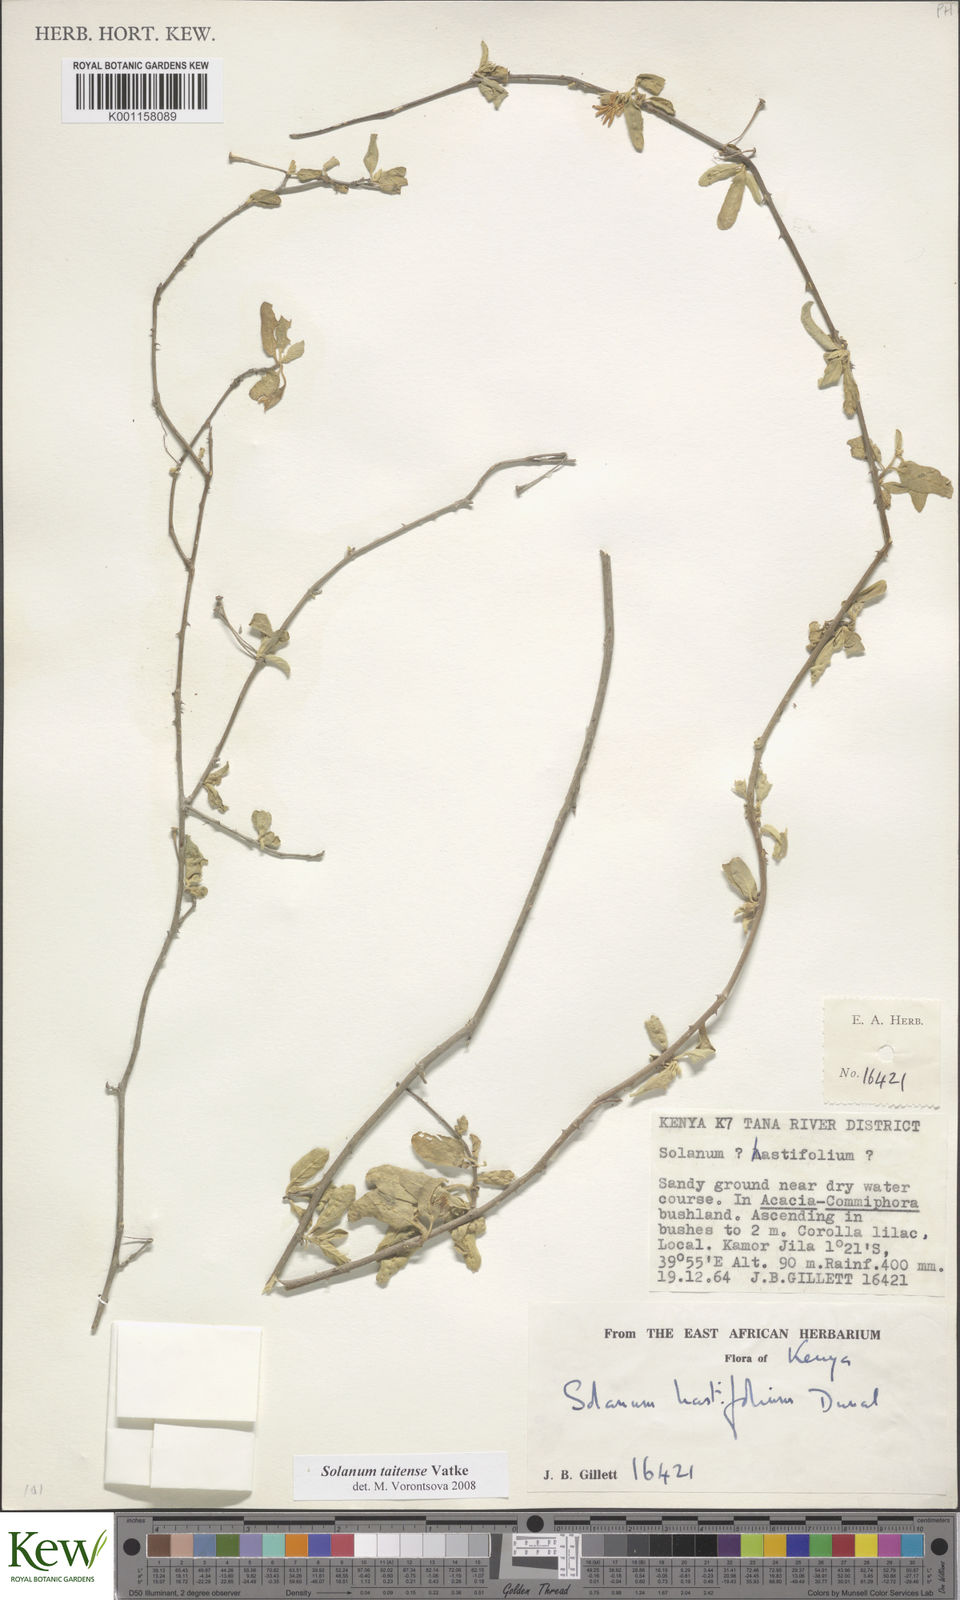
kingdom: Plantae
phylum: Tracheophyta
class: Magnoliopsida
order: Solanales
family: Solanaceae
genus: Solanum
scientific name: Solanum taitense
